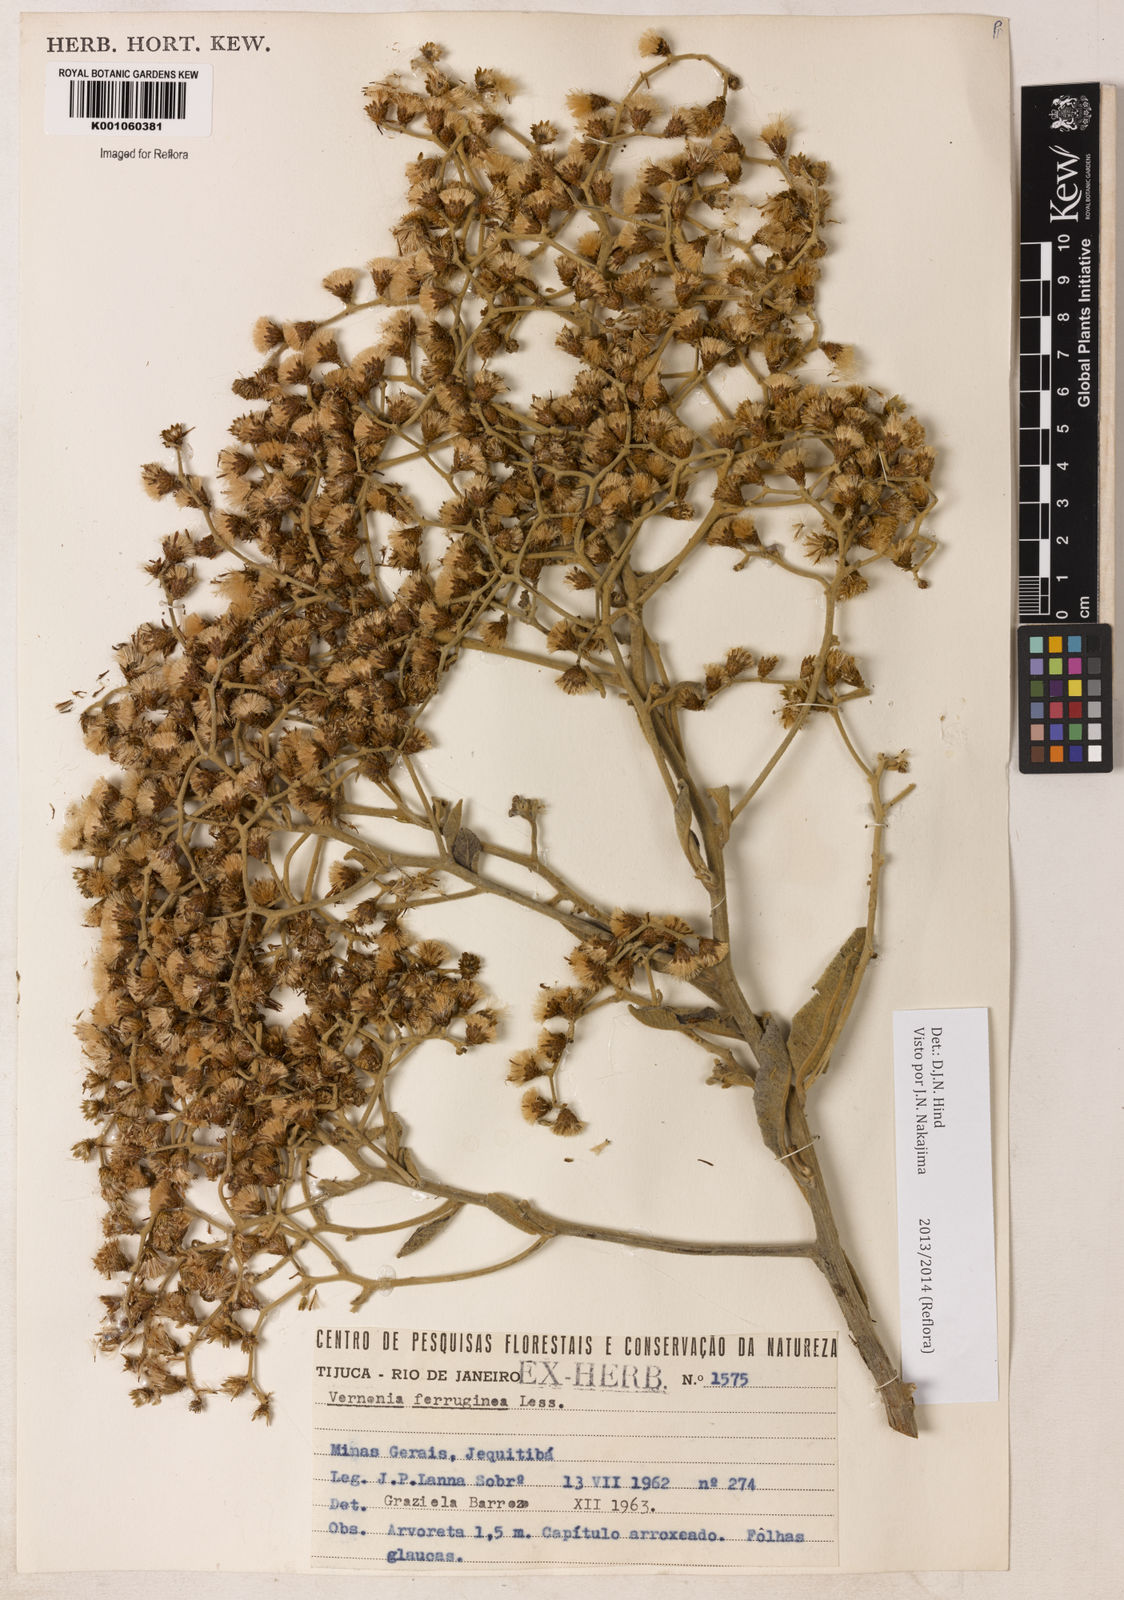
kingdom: Plantae
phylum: Tracheophyta
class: Magnoliopsida
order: Asterales
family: Asteraceae
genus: Vernonanthura
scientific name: Vernonanthura ferruginea
